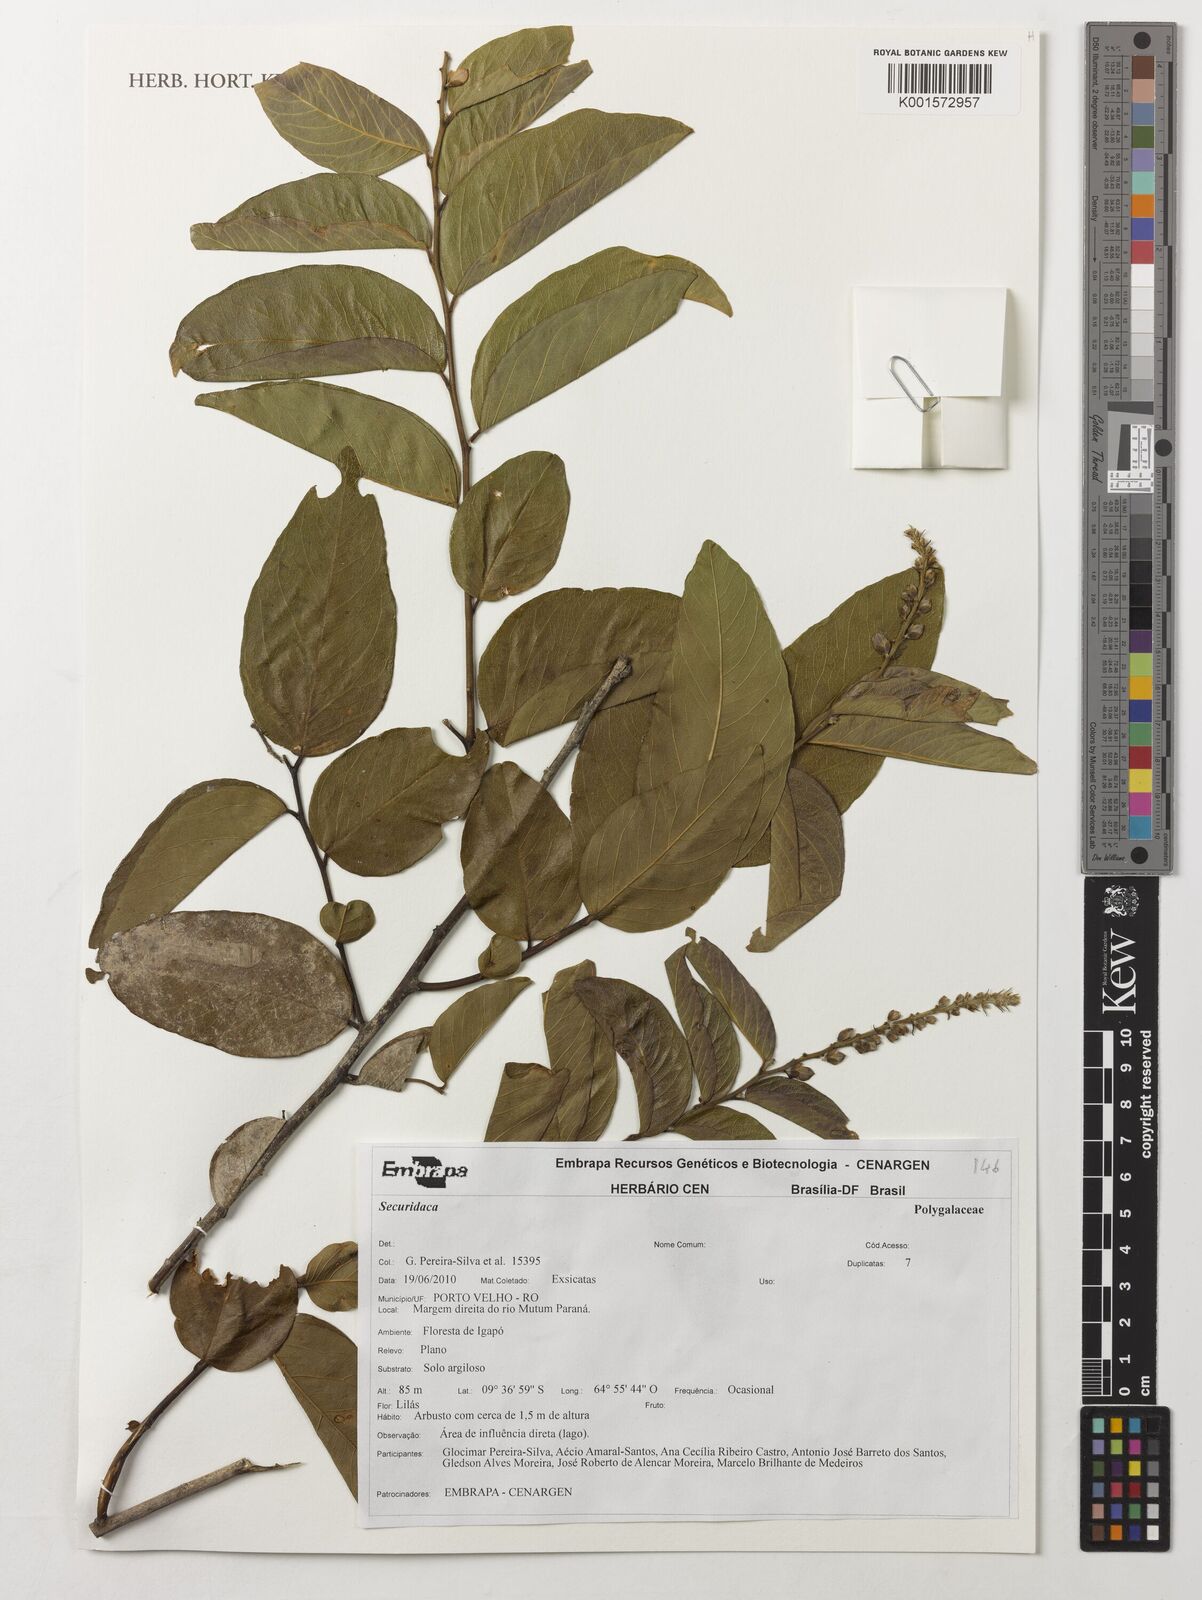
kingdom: Plantae
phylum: Tracheophyta
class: Magnoliopsida
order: Fabales
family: Polygalaceae
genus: Securidaca
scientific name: Securidaca
